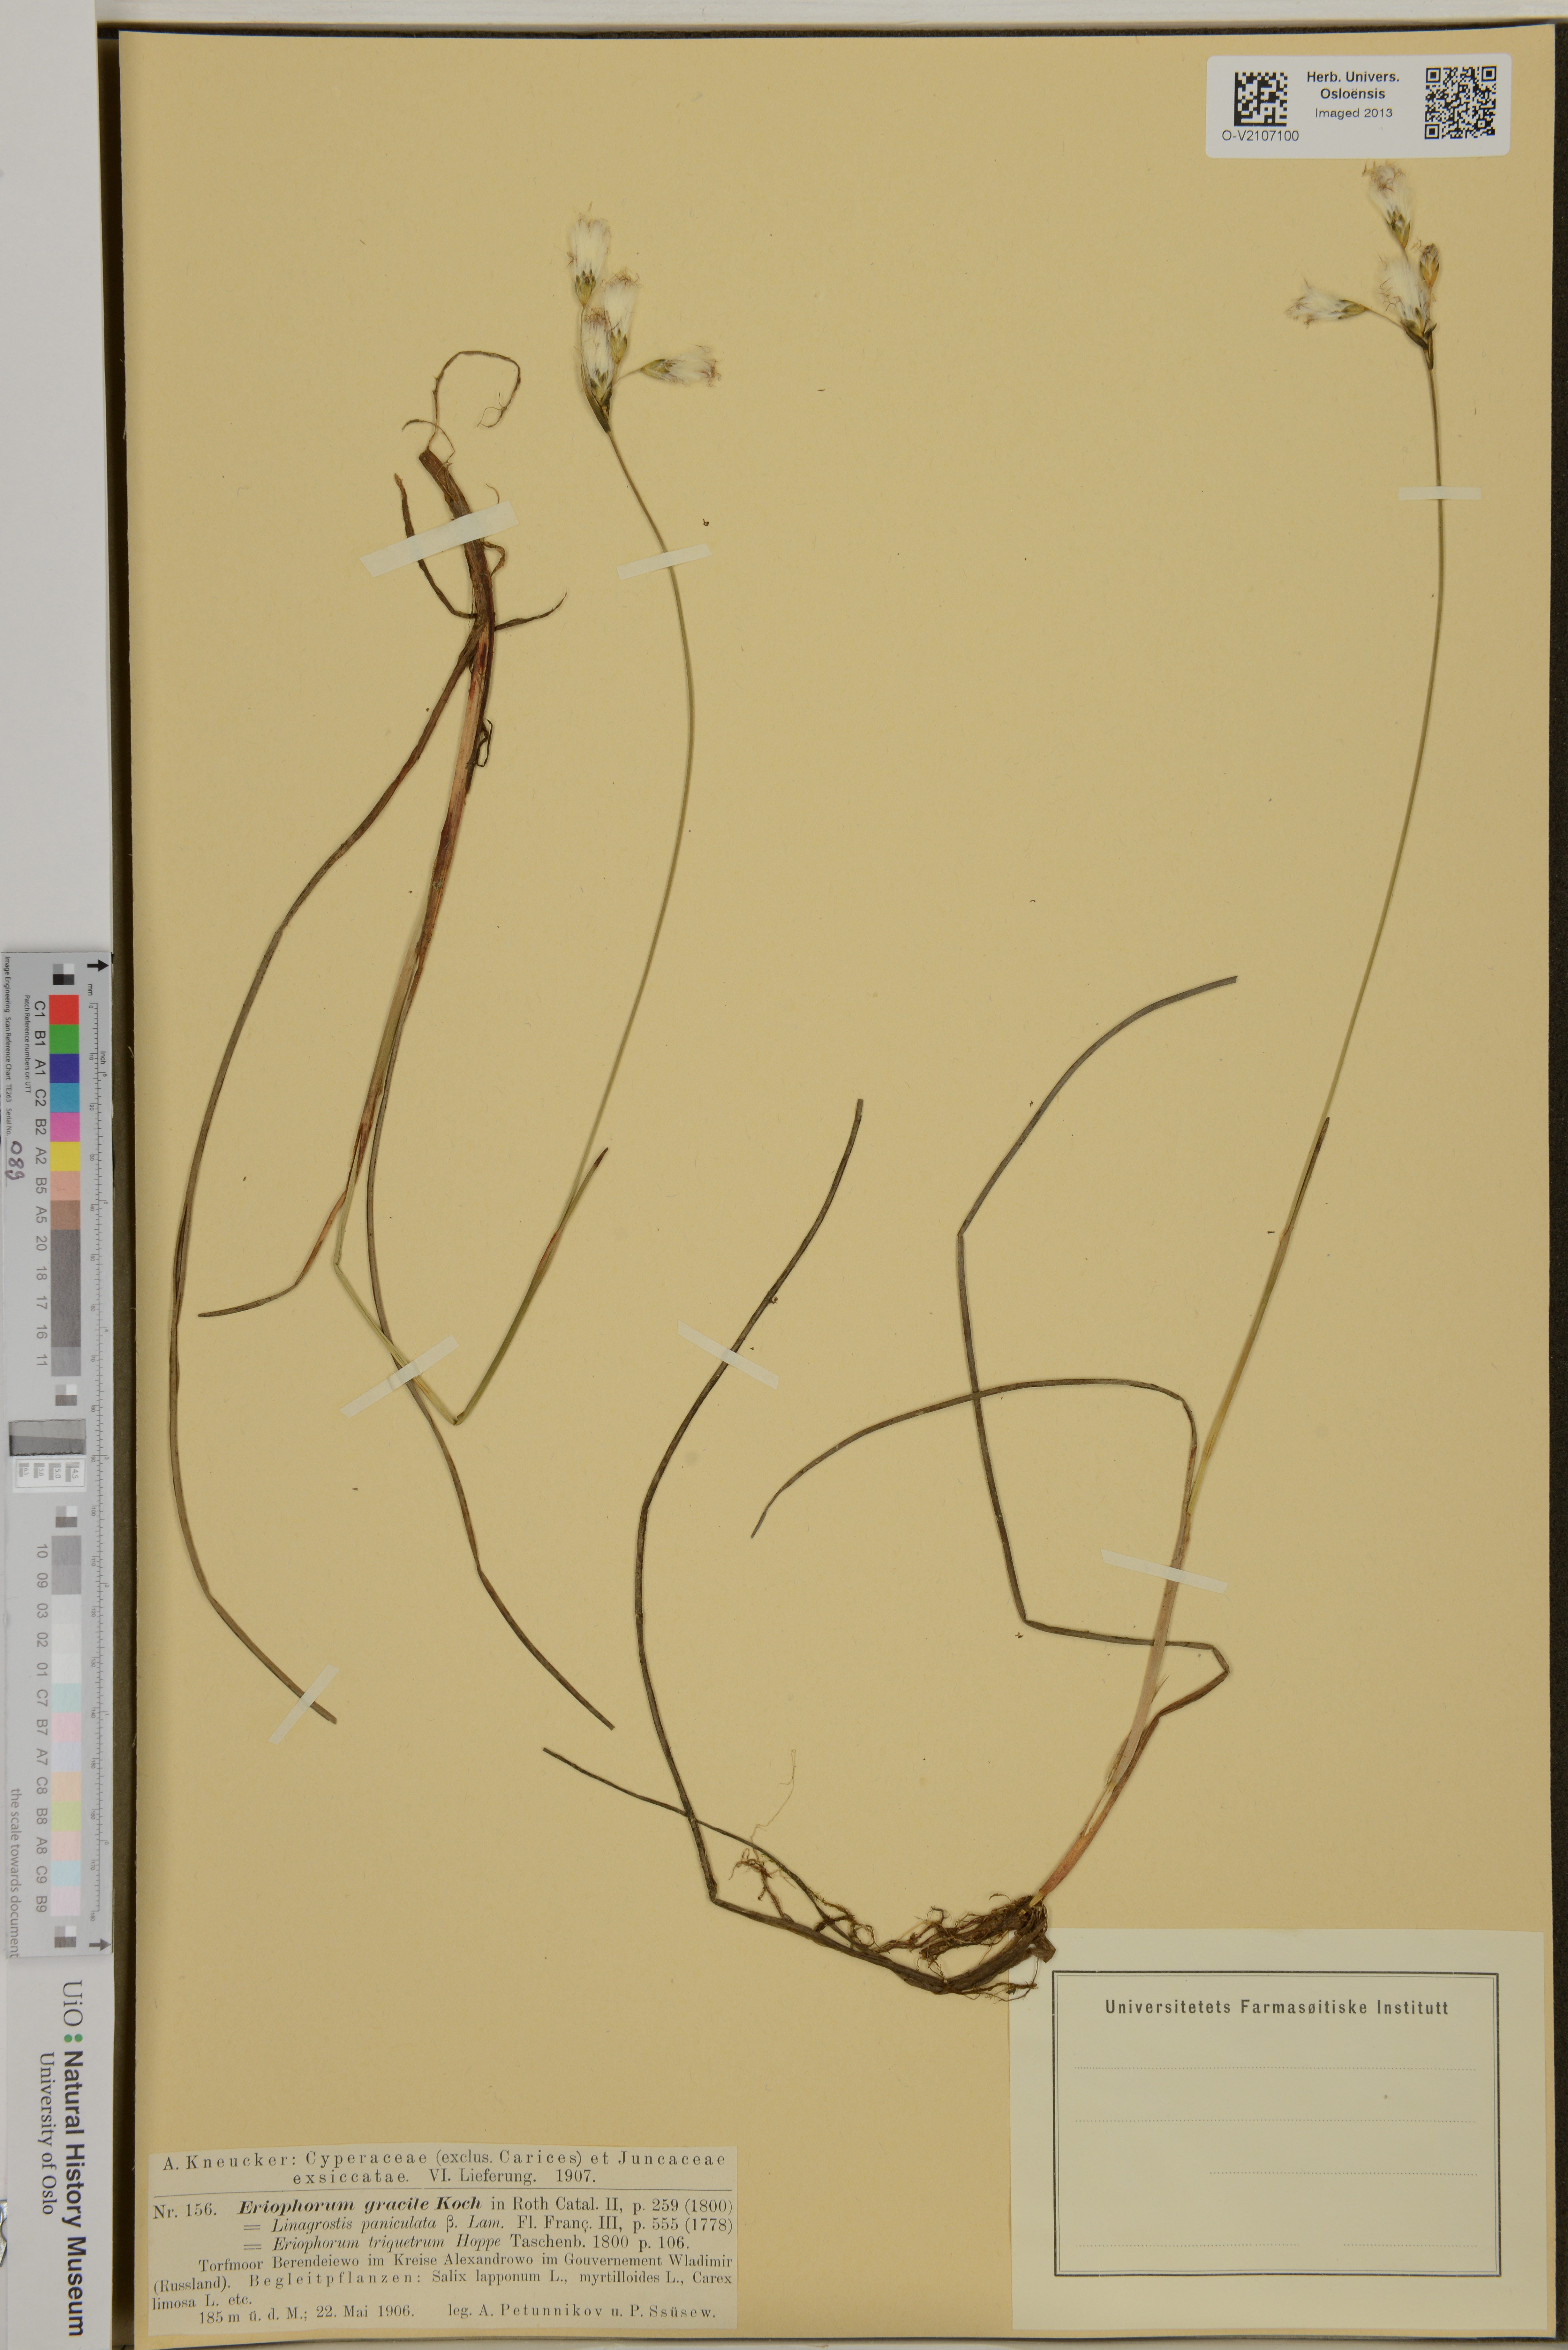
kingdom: Plantae
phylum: Tracheophyta
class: Liliopsida
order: Poales
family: Cyperaceae
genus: Eriophorum
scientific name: Eriophorum gracile
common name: Slender cottongrass
